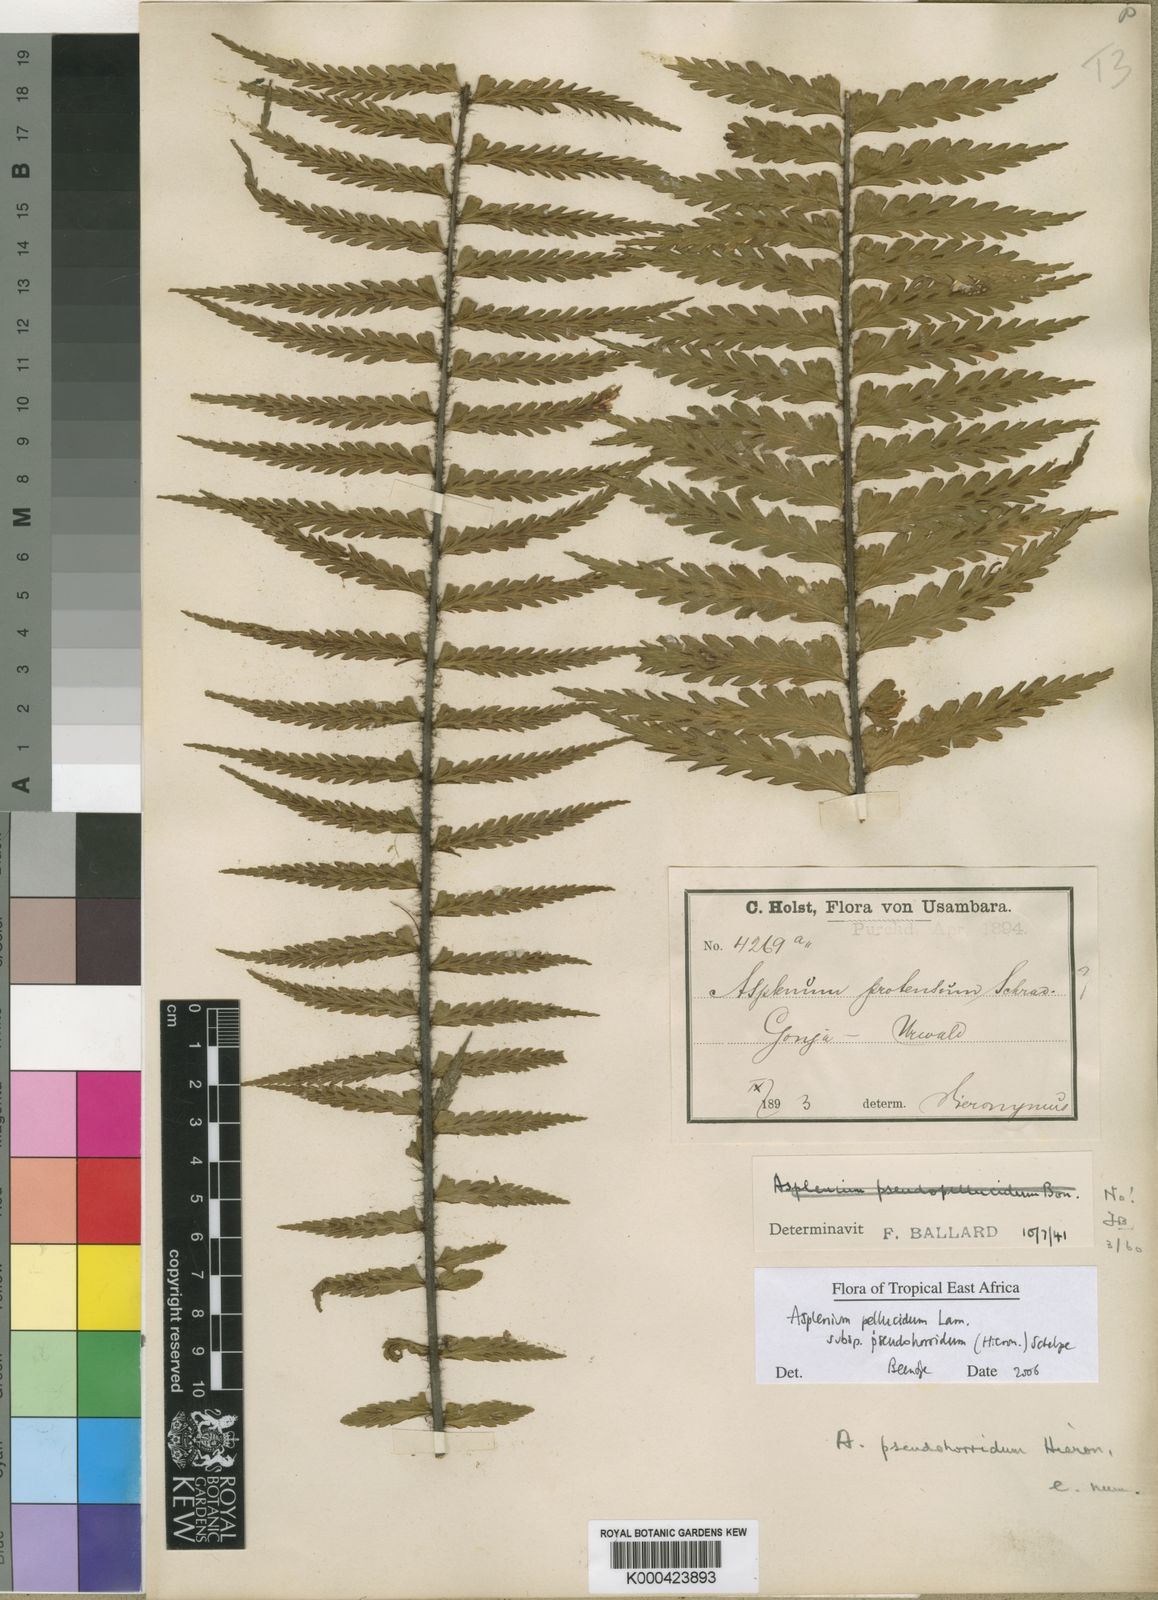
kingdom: Plantae
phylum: Tracheophyta
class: Polypodiopsida
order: Polypodiales
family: Aspleniaceae
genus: Asplenium
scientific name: Asplenium pellucidum
